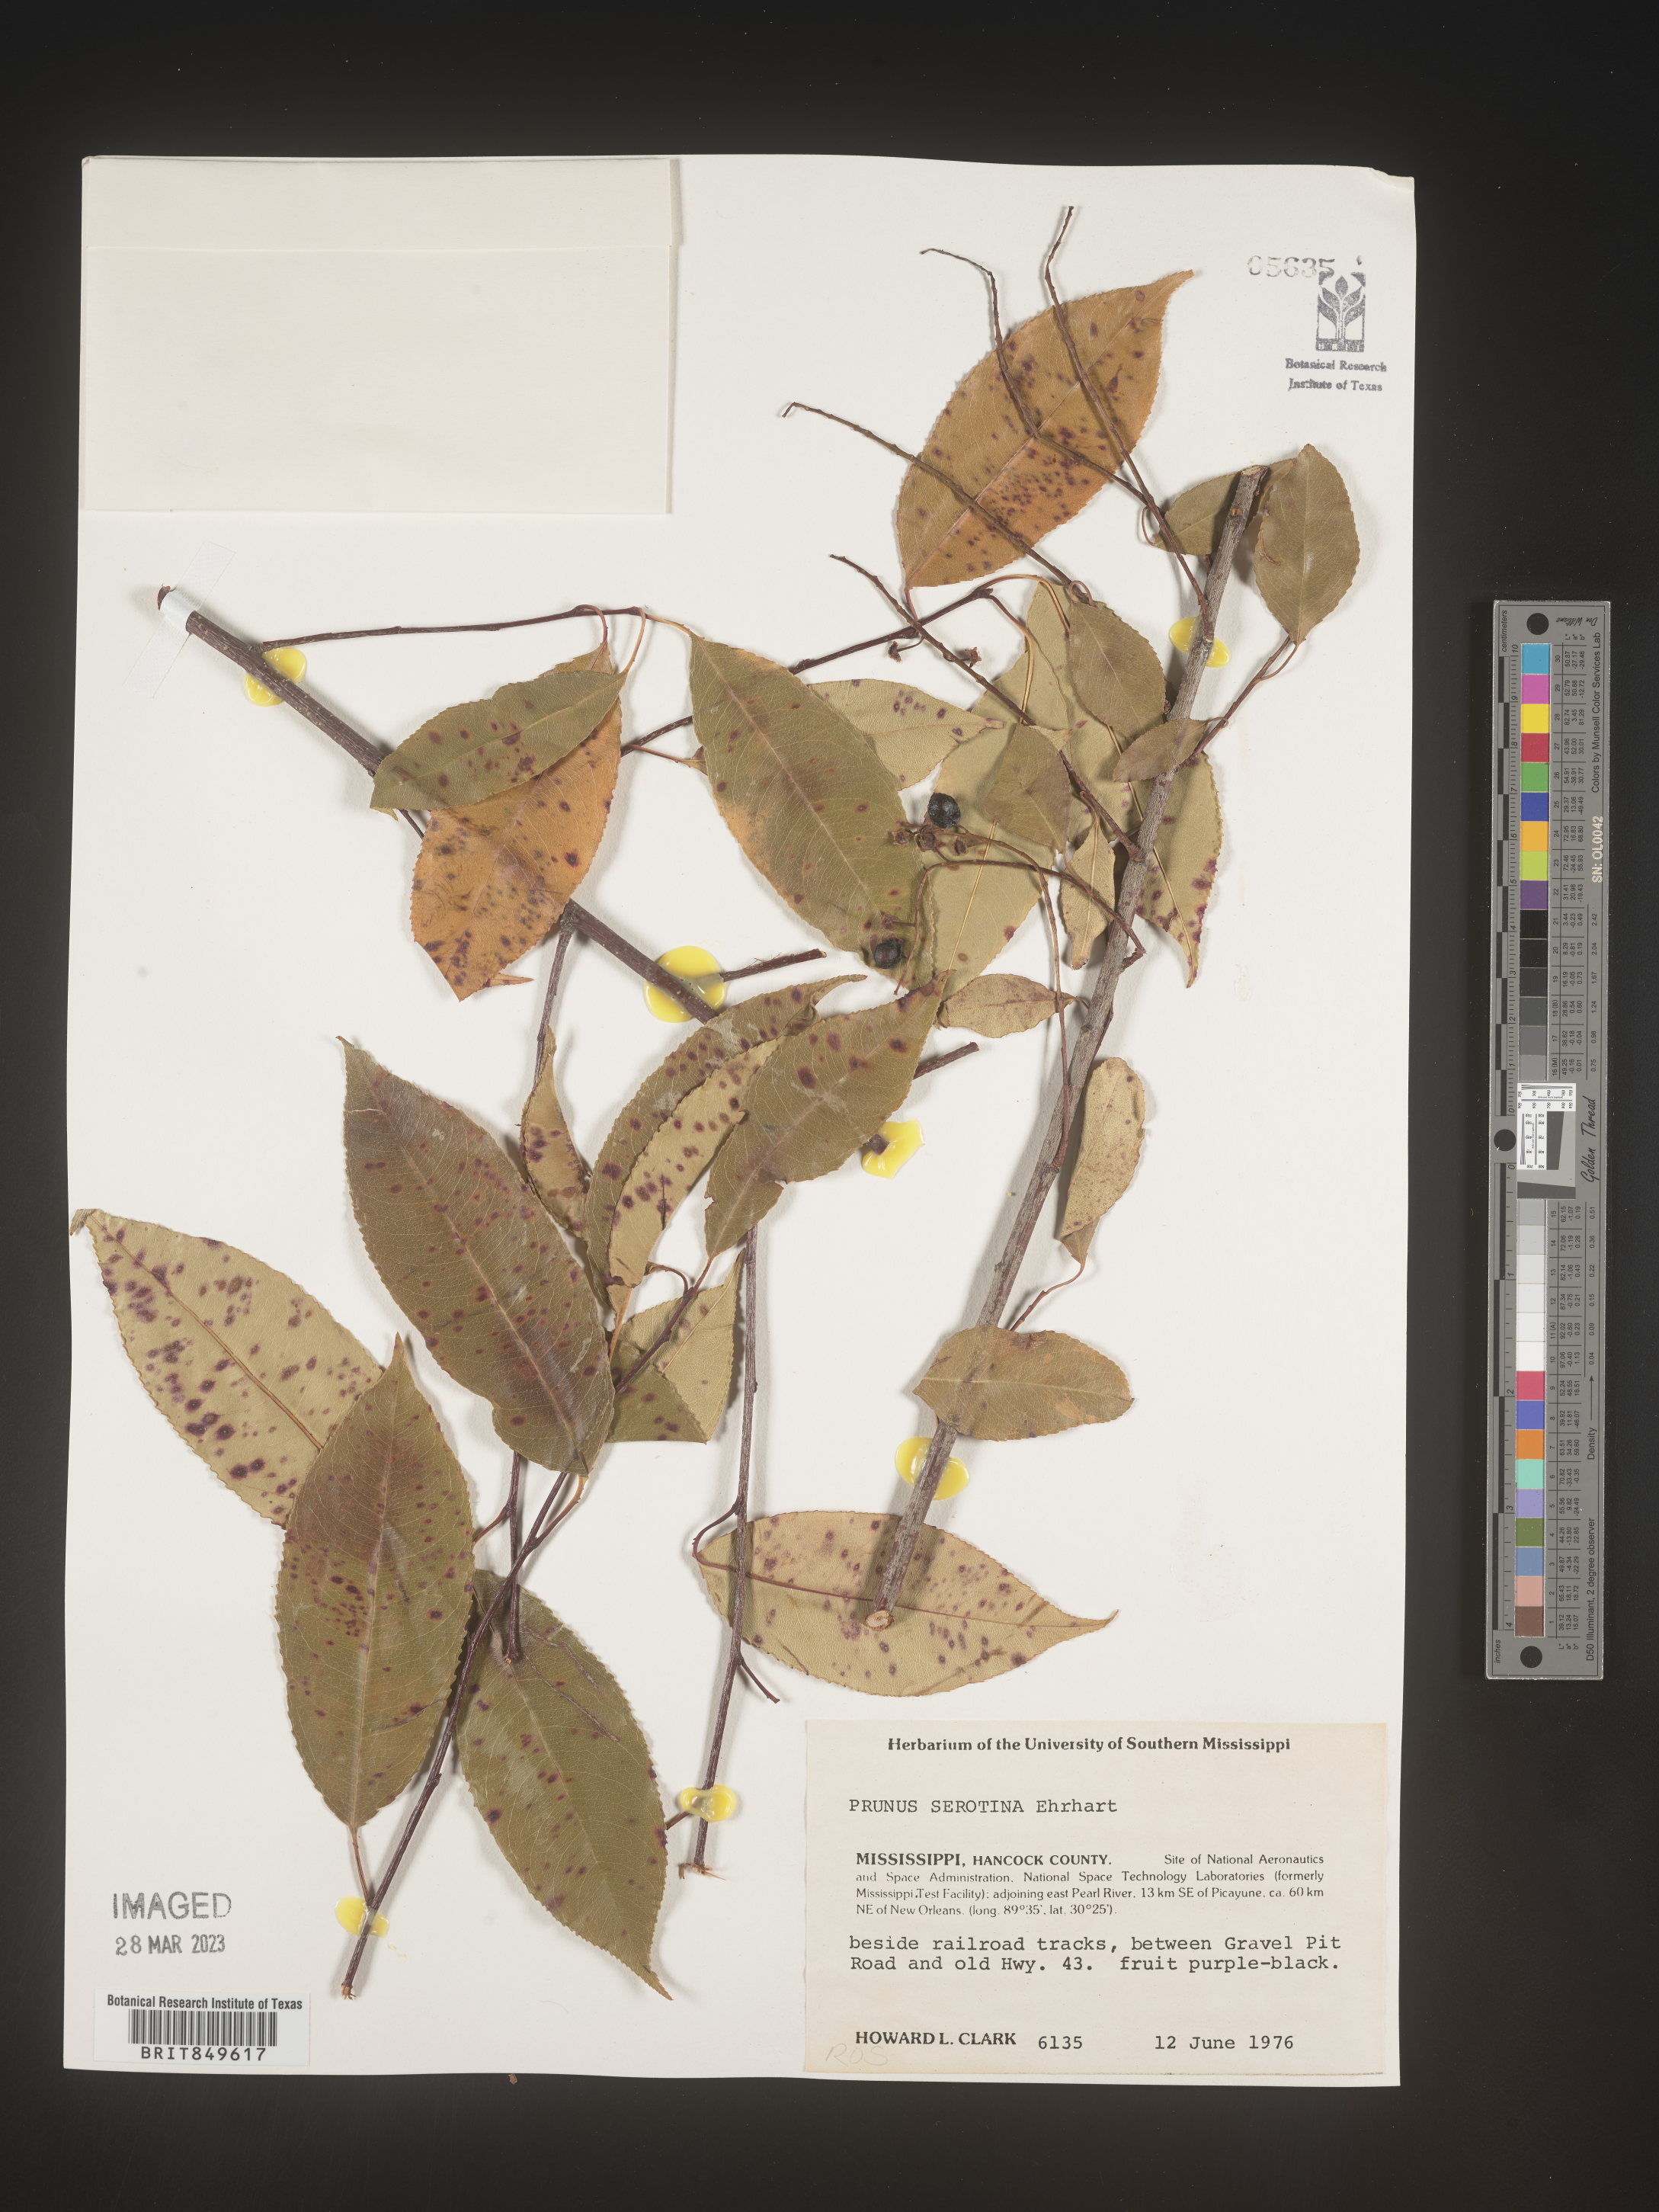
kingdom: Plantae
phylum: Tracheophyta
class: Magnoliopsida
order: Rosales
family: Rosaceae
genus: Prunus
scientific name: Prunus serotina
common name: Black cherry
